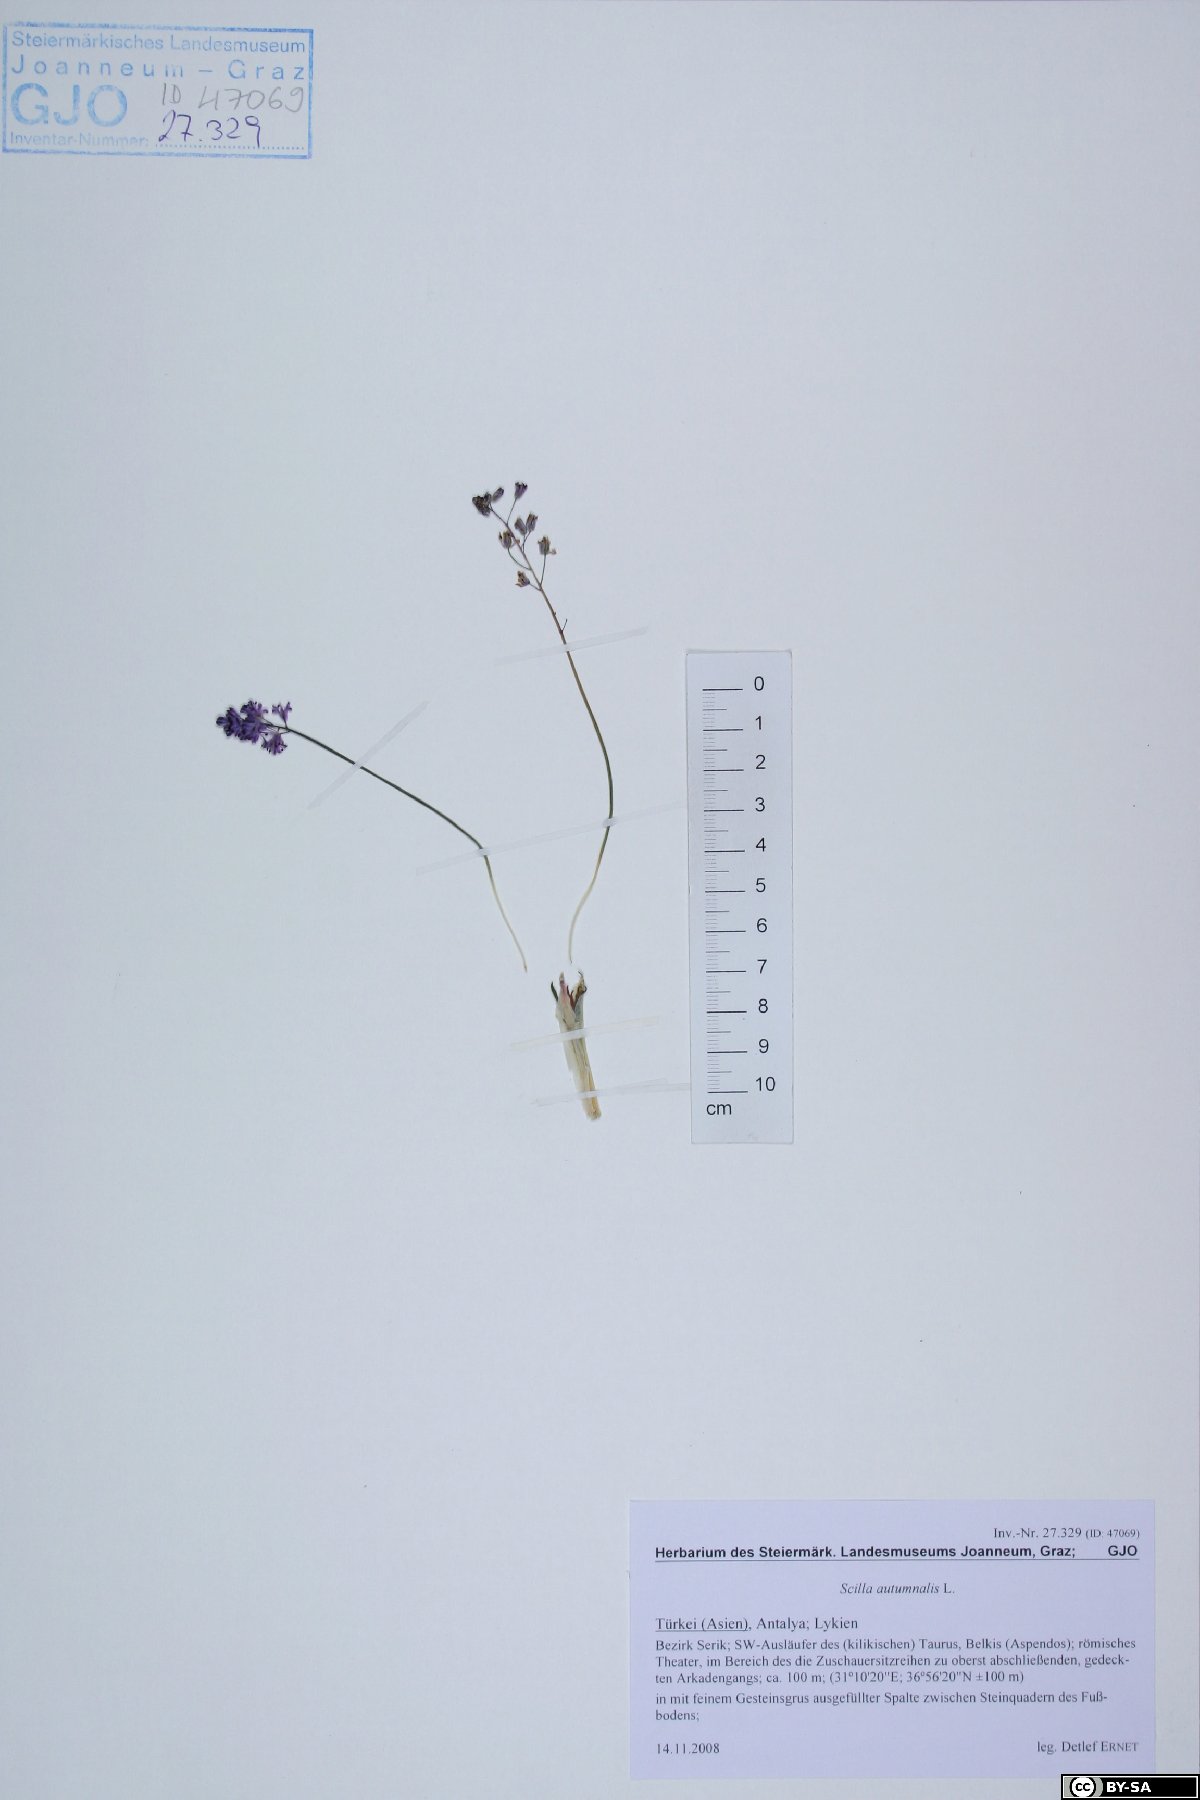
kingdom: Plantae
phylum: Tracheophyta
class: Liliopsida
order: Asparagales
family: Asparagaceae
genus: Prospero
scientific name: Prospero autumnale
